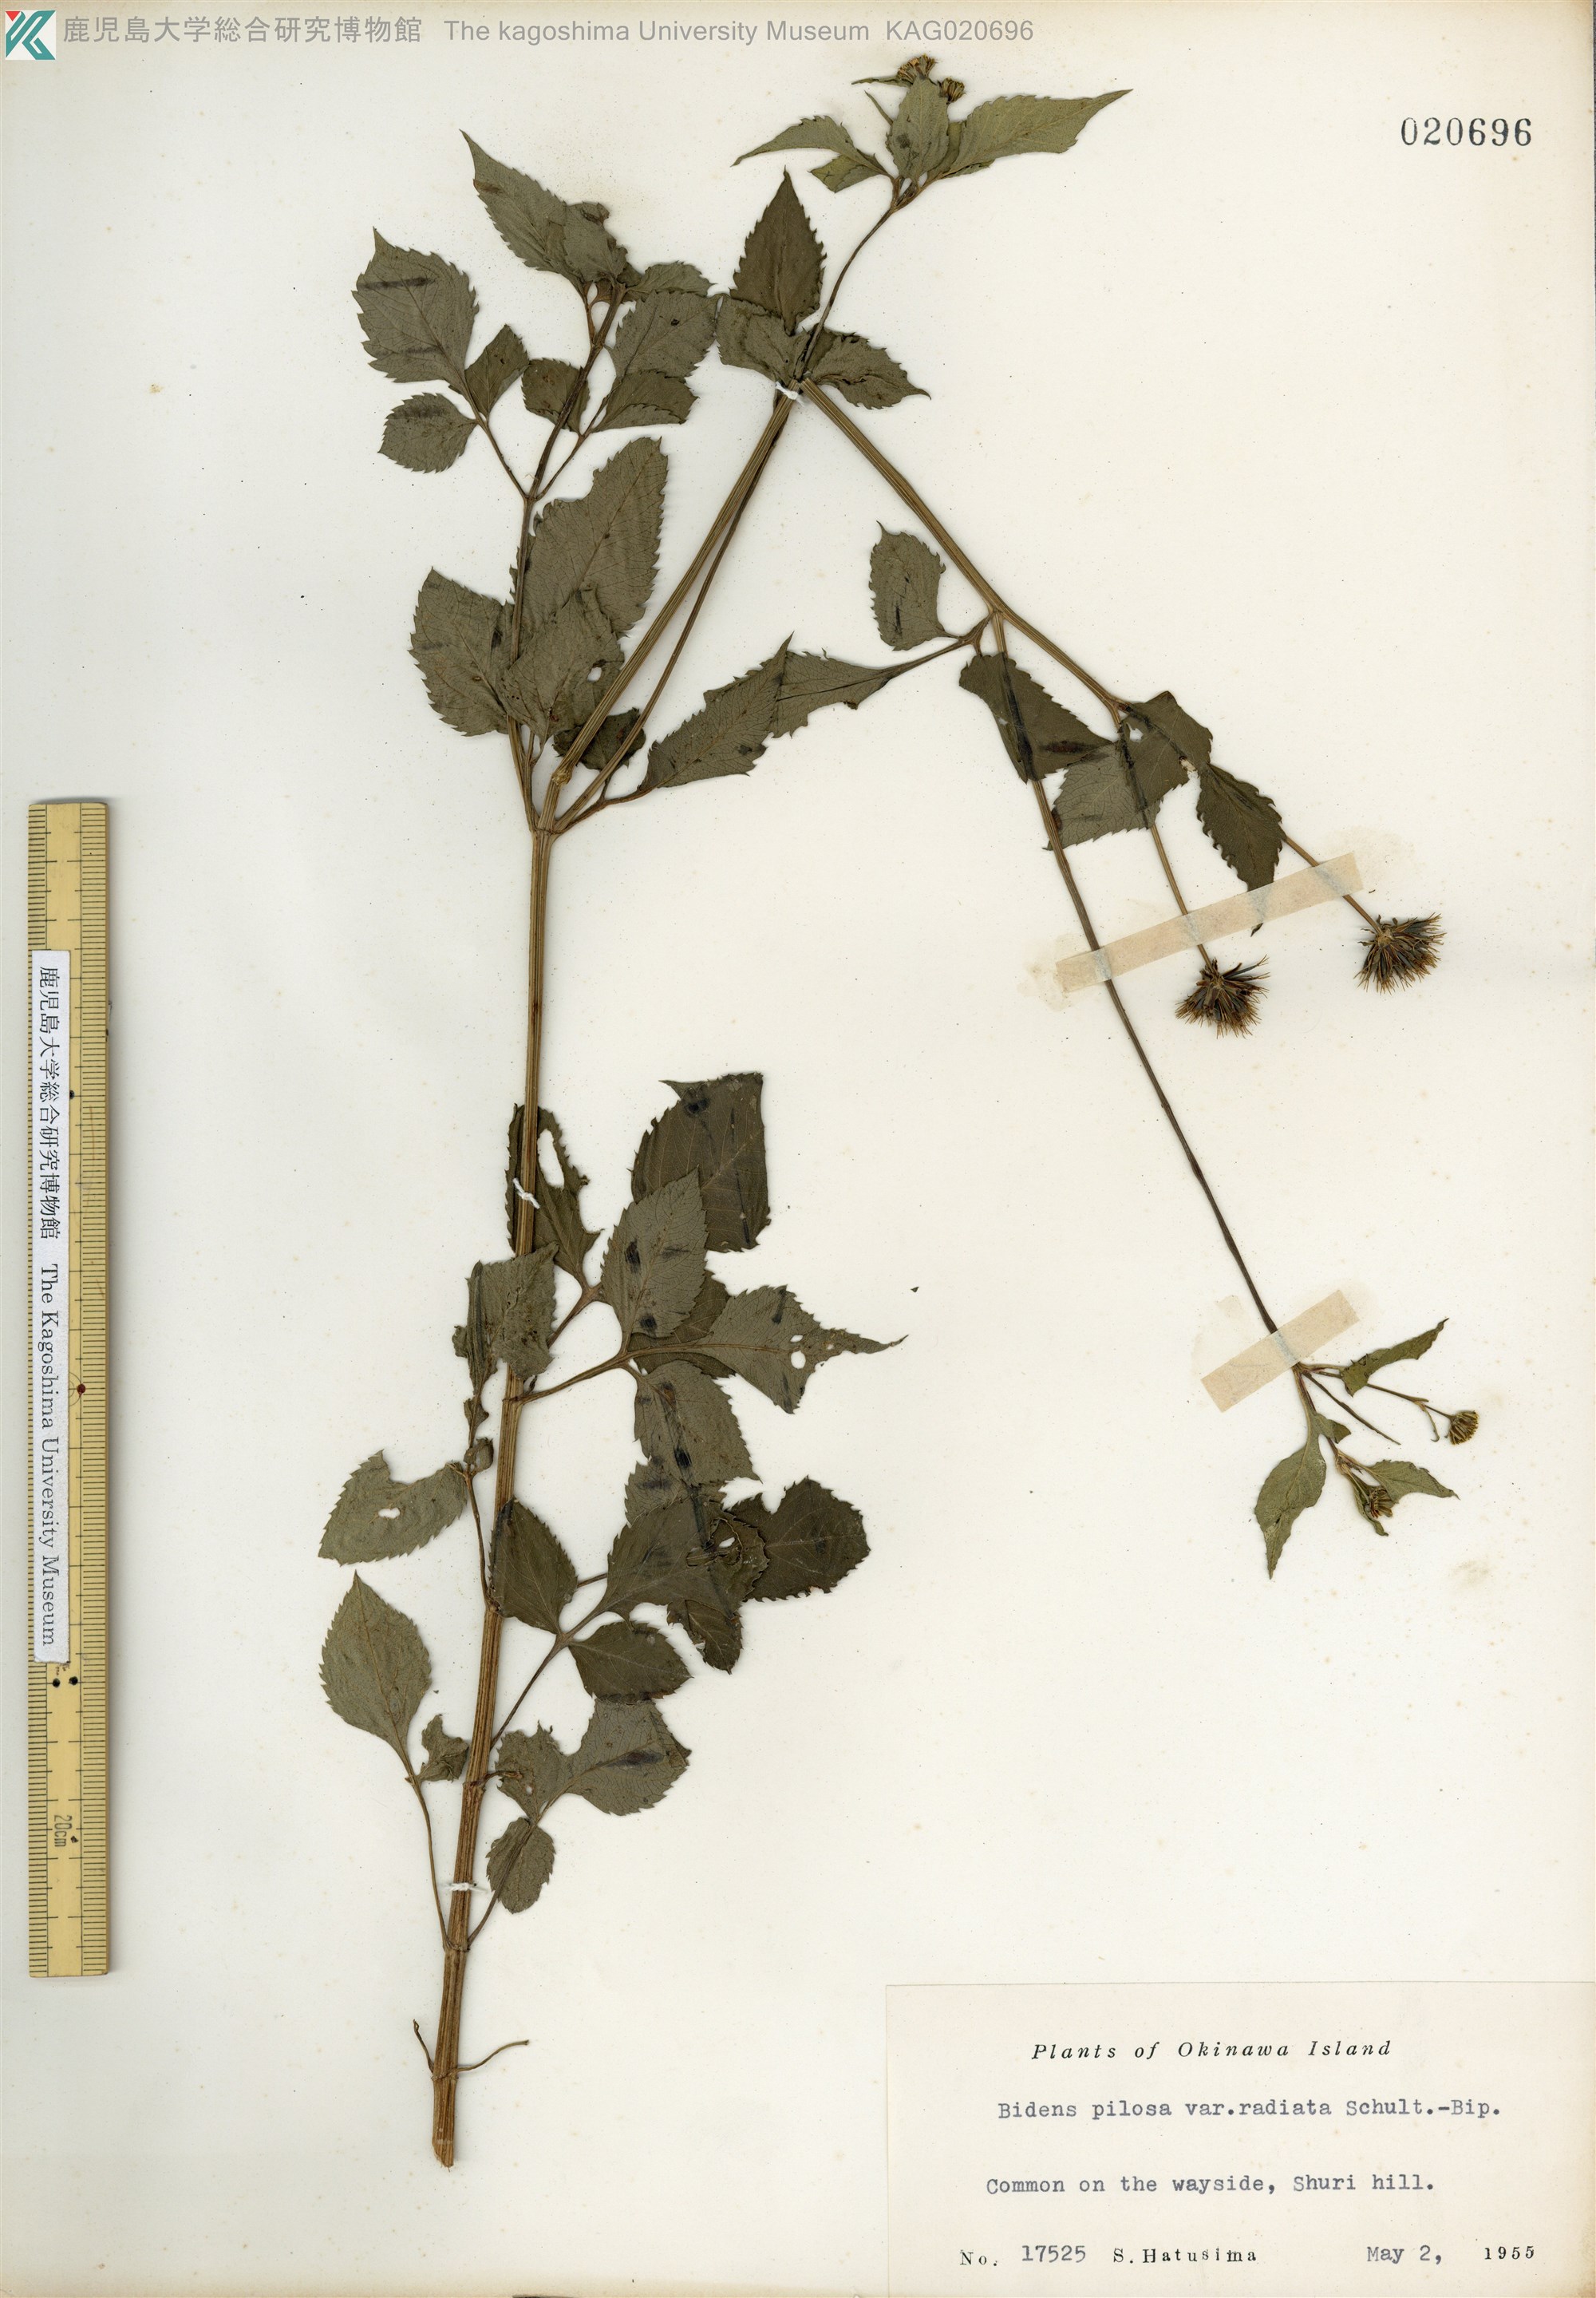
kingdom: Plantae
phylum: Tracheophyta
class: Magnoliopsida
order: Asterales
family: Asteraceae
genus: Bidens
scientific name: Bidens pilosa
